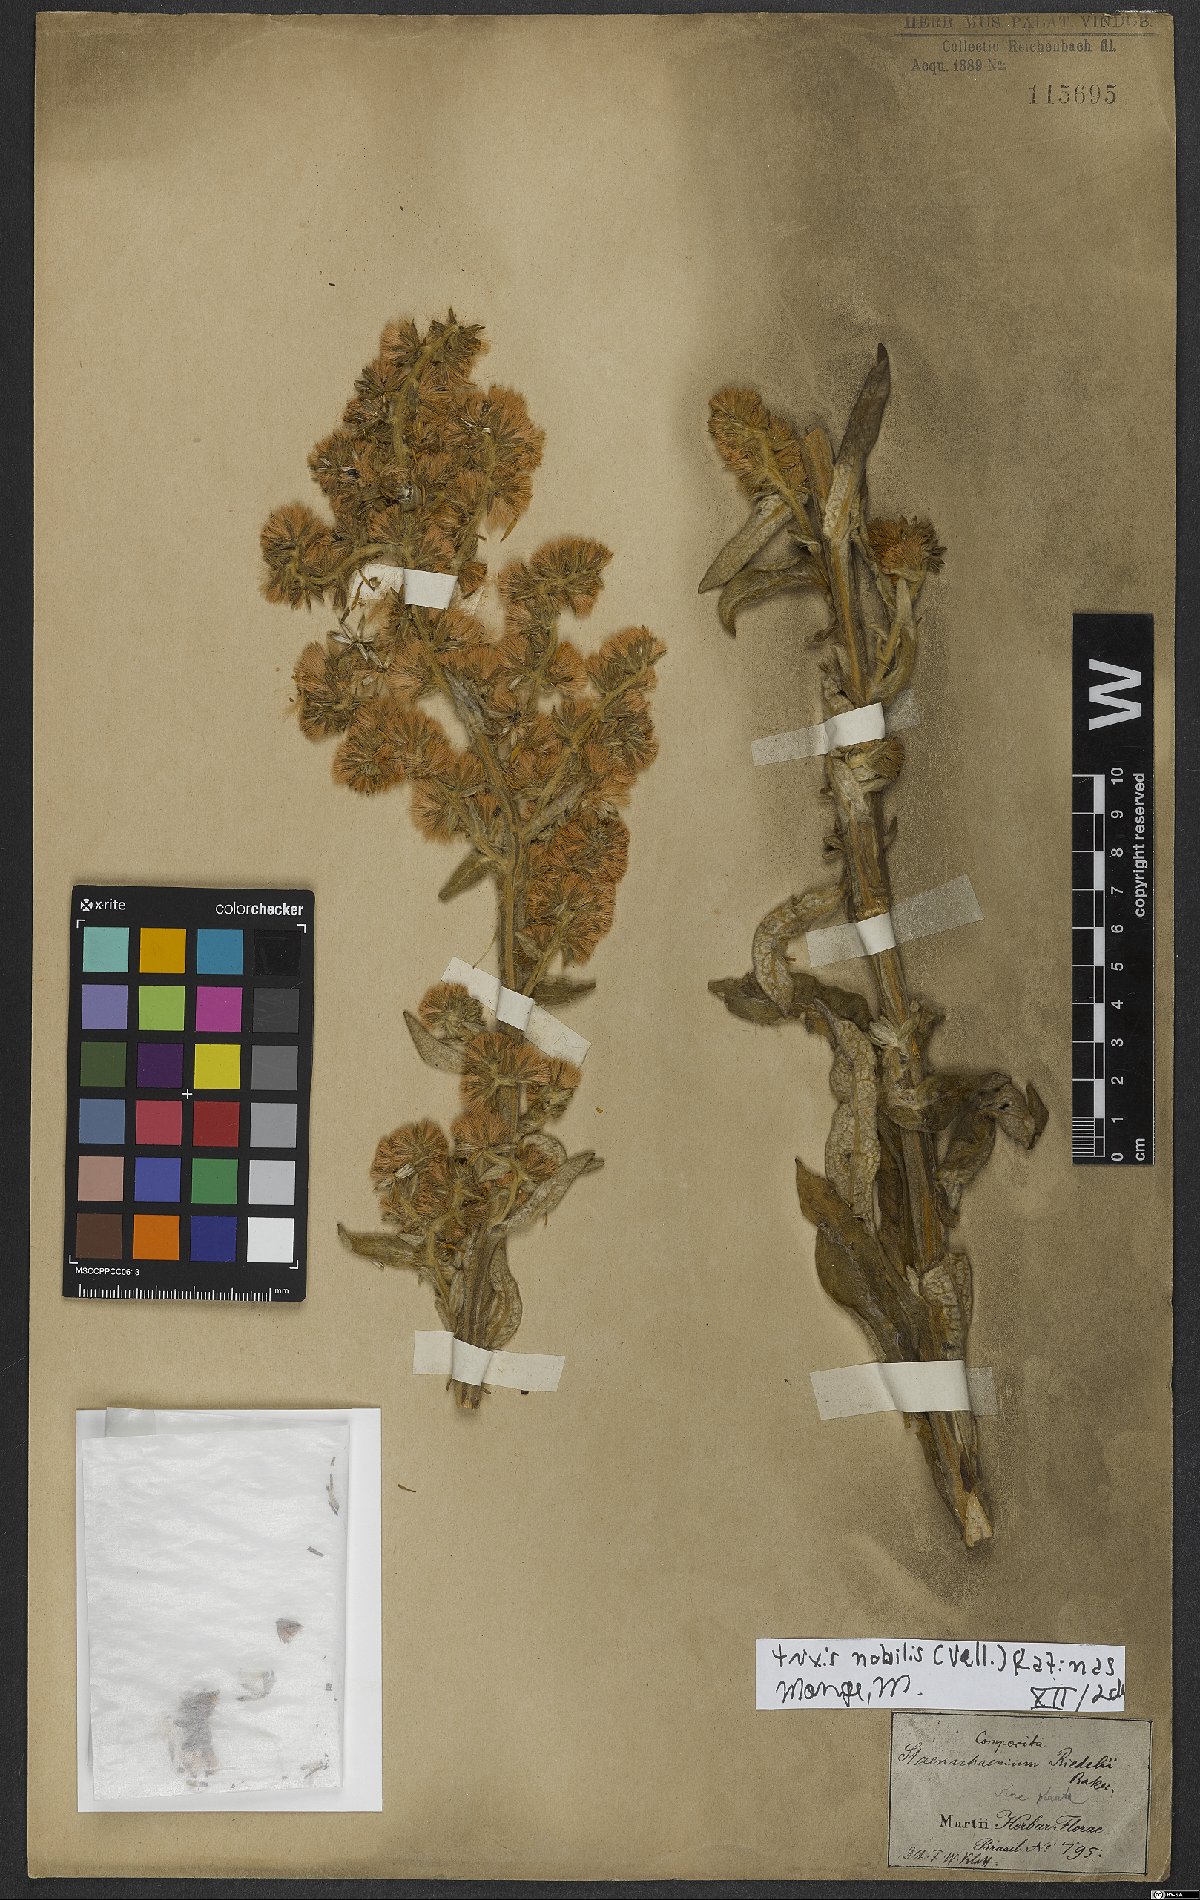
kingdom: Plantae
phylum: Tracheophyta
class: Magnoliopsida
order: Asterales
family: Asteraceae
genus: Trixis
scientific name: Trixis nobilis
